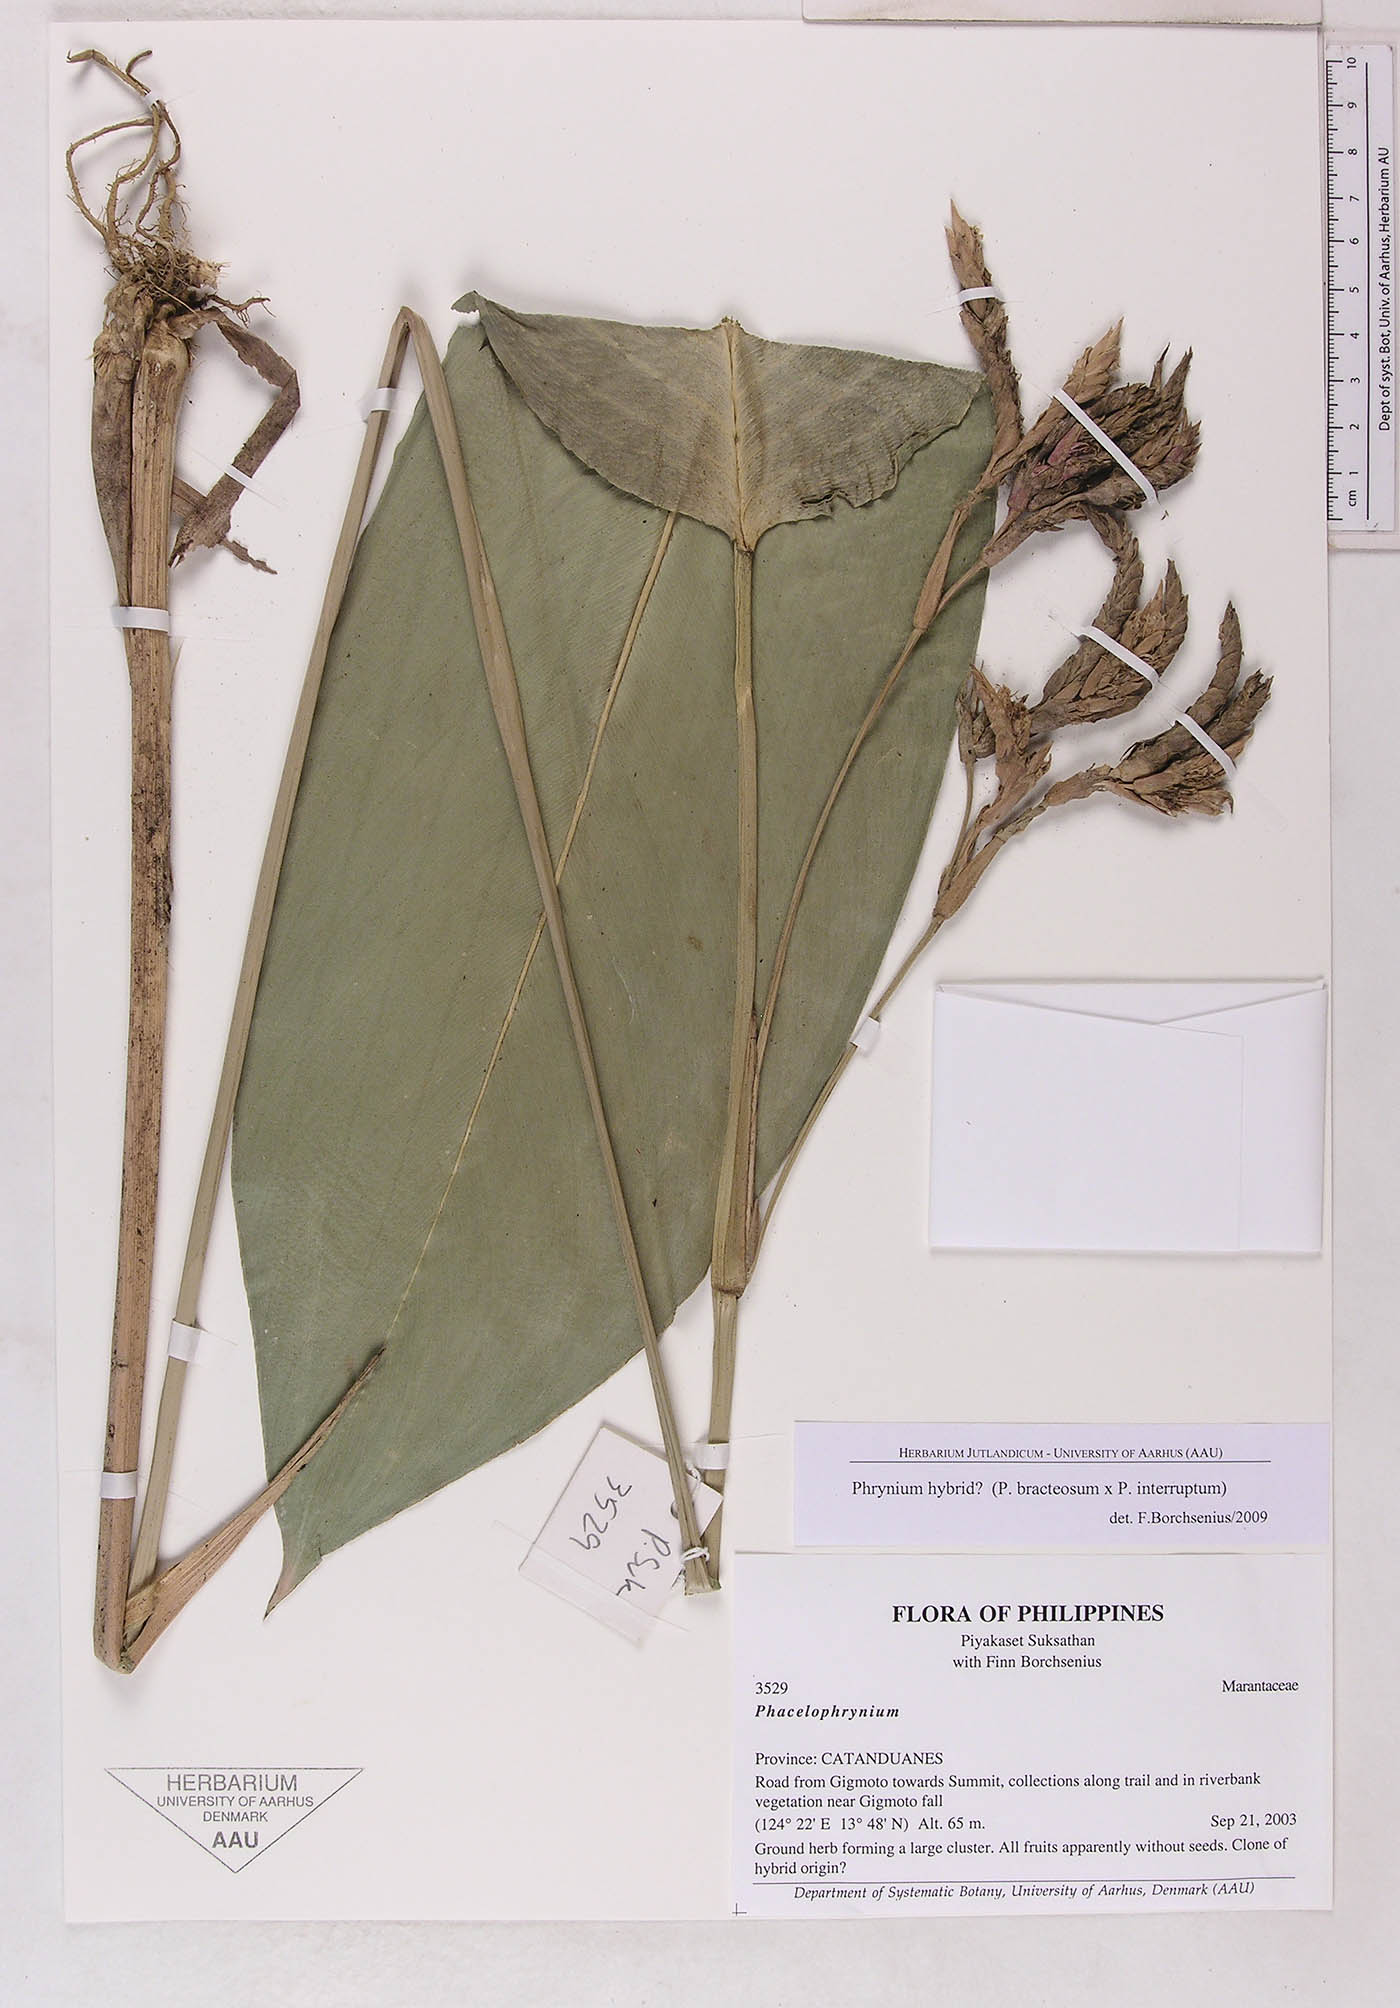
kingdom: Plantae
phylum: Tracheophyta
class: Liliopsida
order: Zingiberales
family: Marantaceae
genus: Phrynium
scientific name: Phrynium
